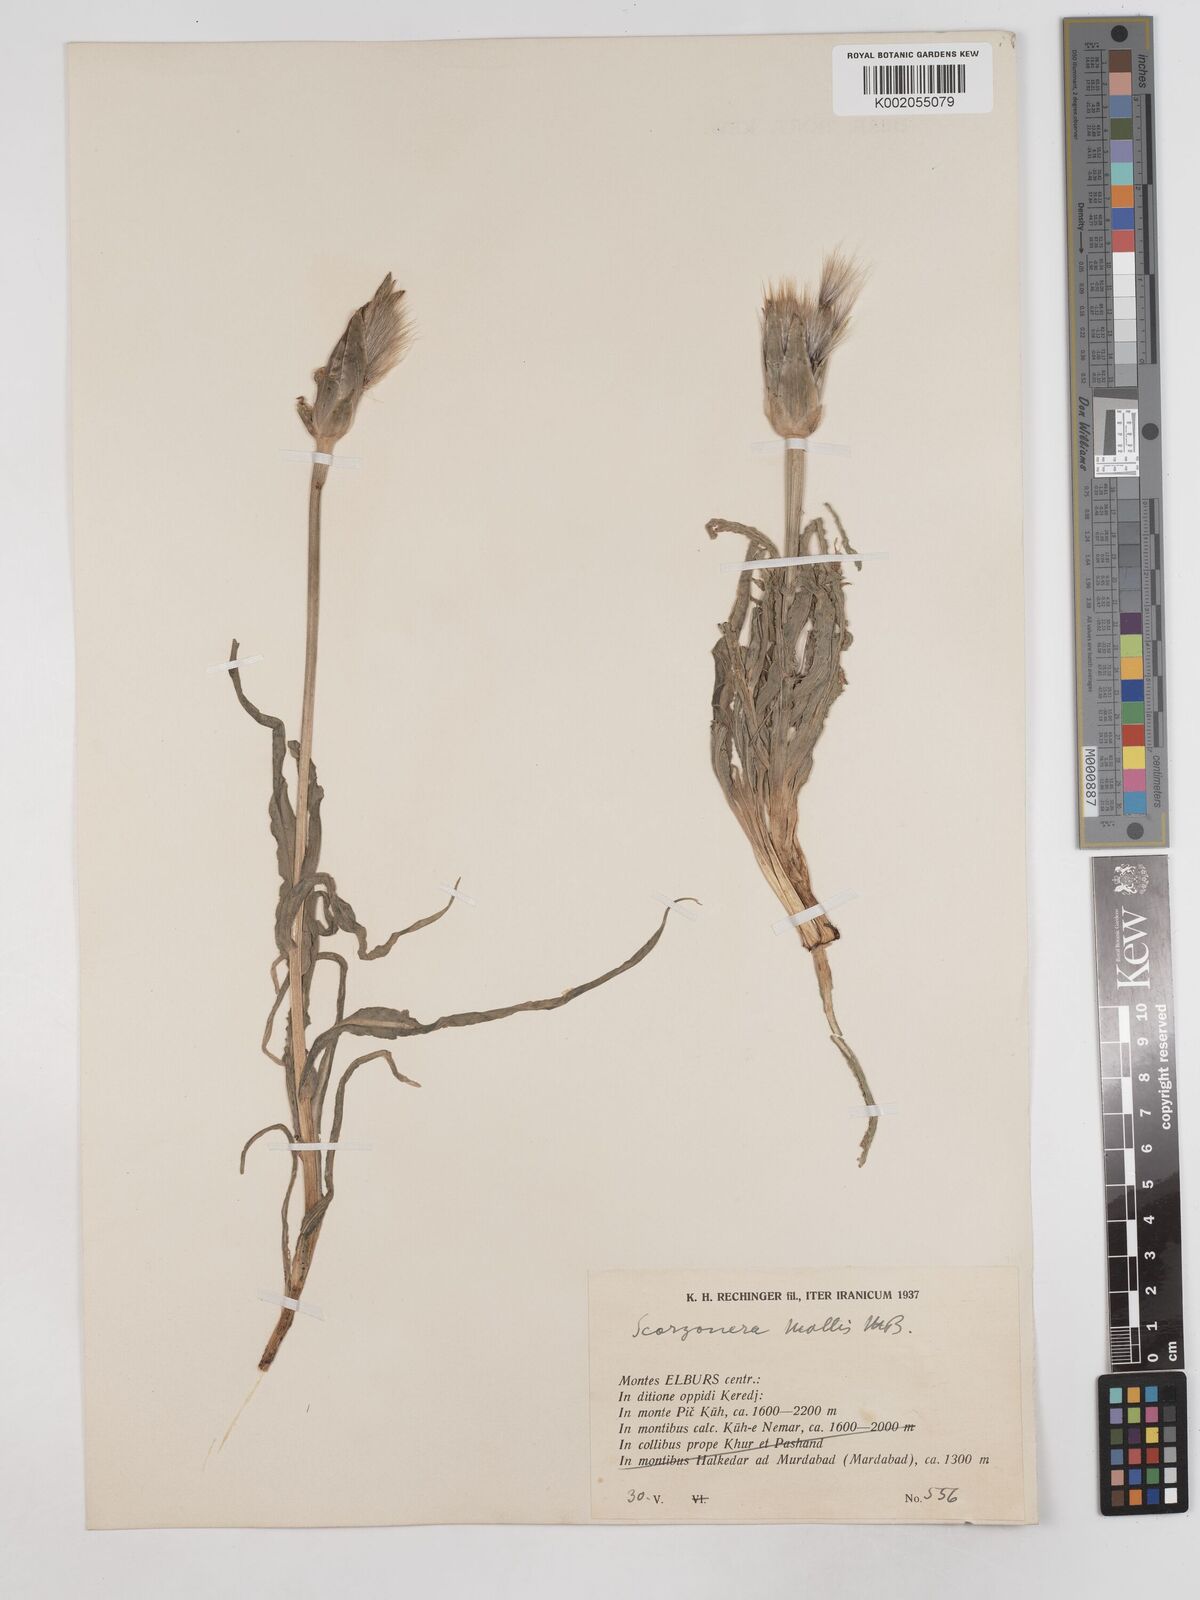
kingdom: Plantae
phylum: Tracheophyta
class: Magnoliopsida
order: Asterales
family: Asteraceae
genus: Candollea
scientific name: Candollea mollis
